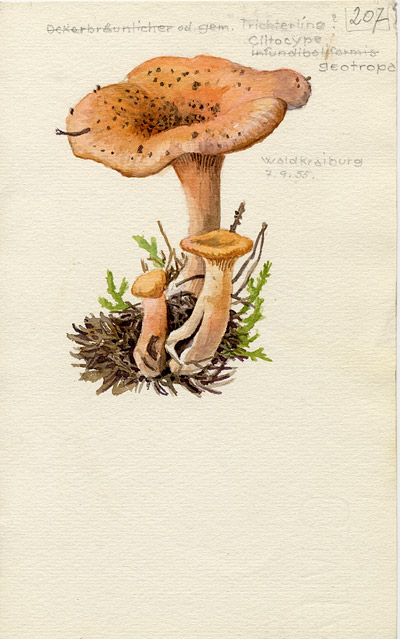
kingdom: Fungi
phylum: Basidiomycota
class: Agaricomycetes
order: Agaricales
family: Tricholomataceae
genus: Infundibulicybe
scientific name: Infundibulicybe geotropa
